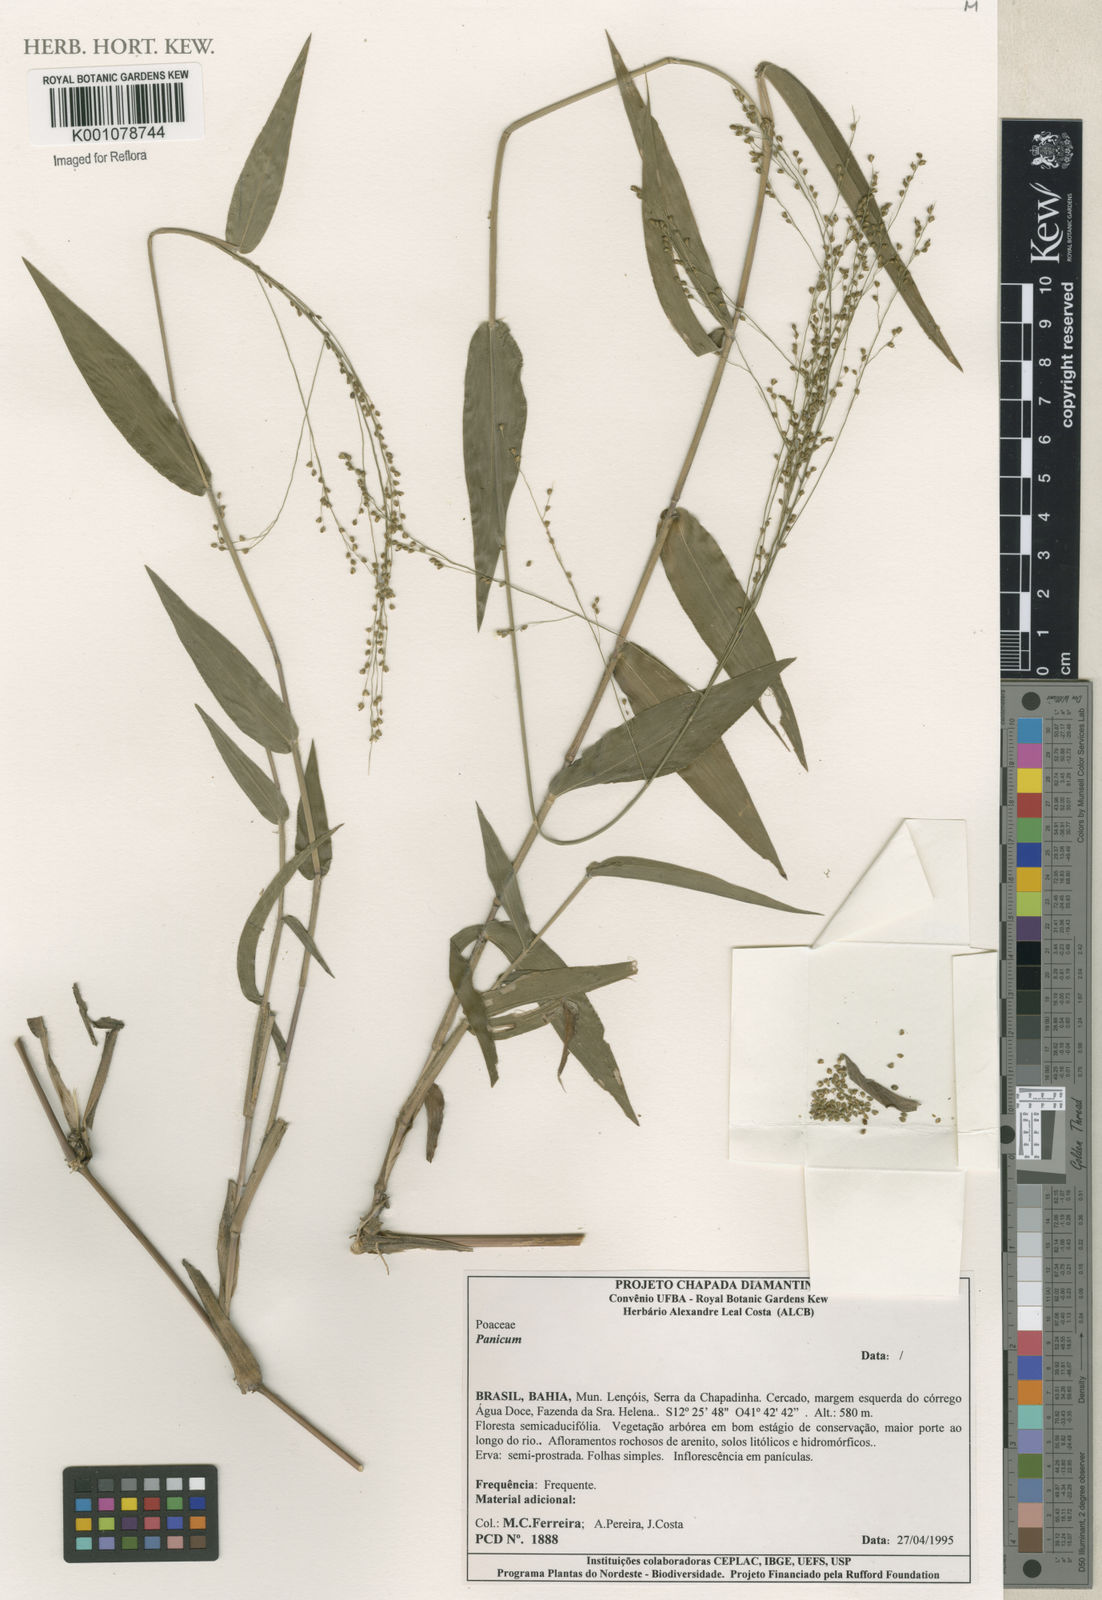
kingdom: Plantae
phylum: Tracheophyta
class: Liliopsida
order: Poales
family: Poaceae
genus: Panicum
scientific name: Panicum
